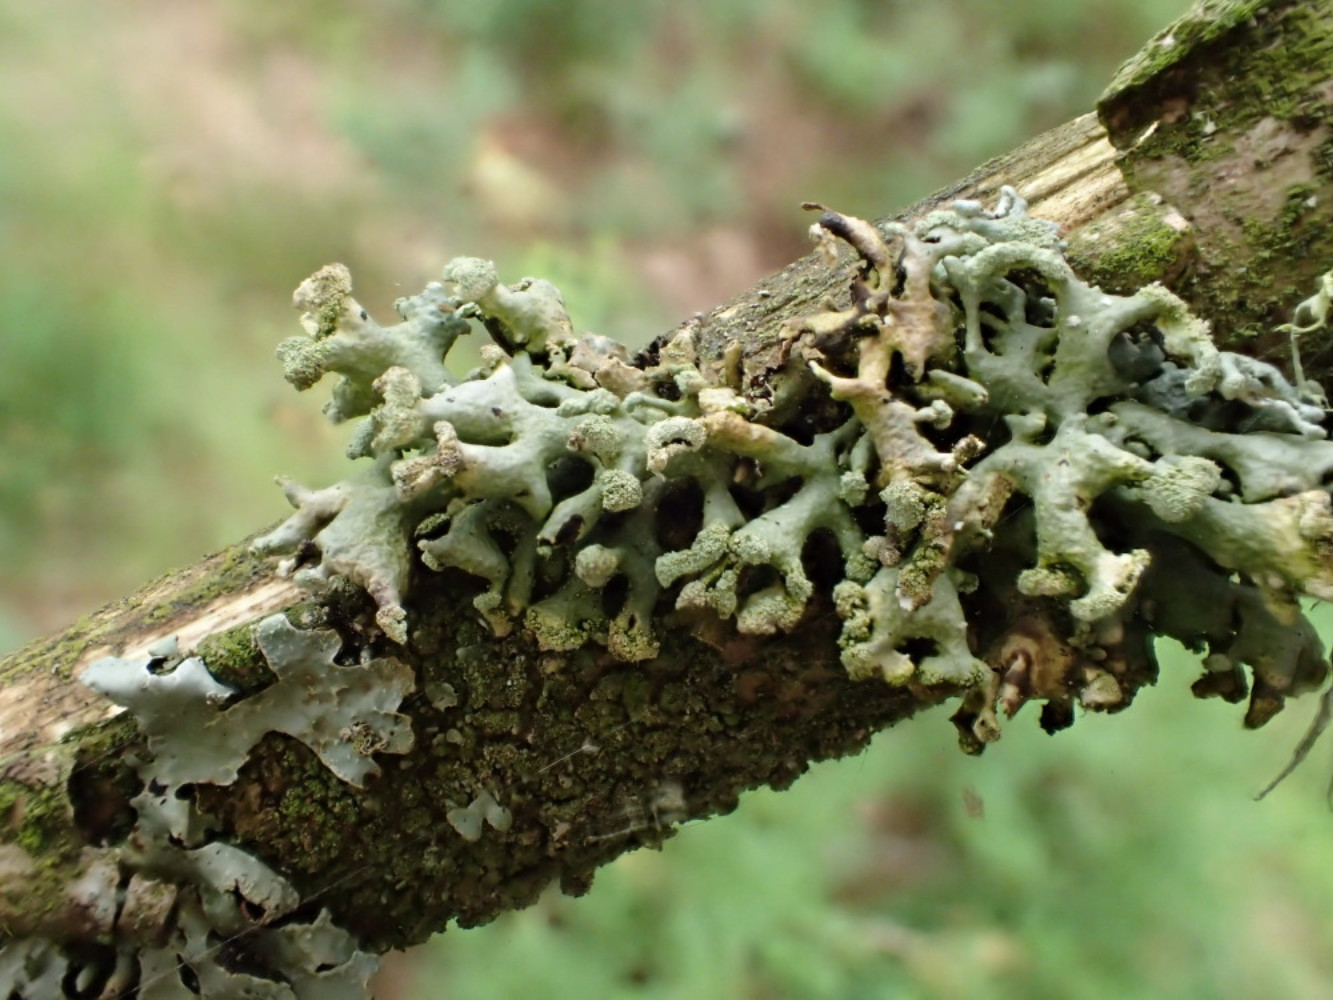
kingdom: Fungi
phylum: Ascomycota
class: Lecanoromycetes
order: Lecanorales
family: Parmeliaceae
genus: Hypogymnia
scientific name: Hypogymnia tubulosa
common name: finger-kvistlav
